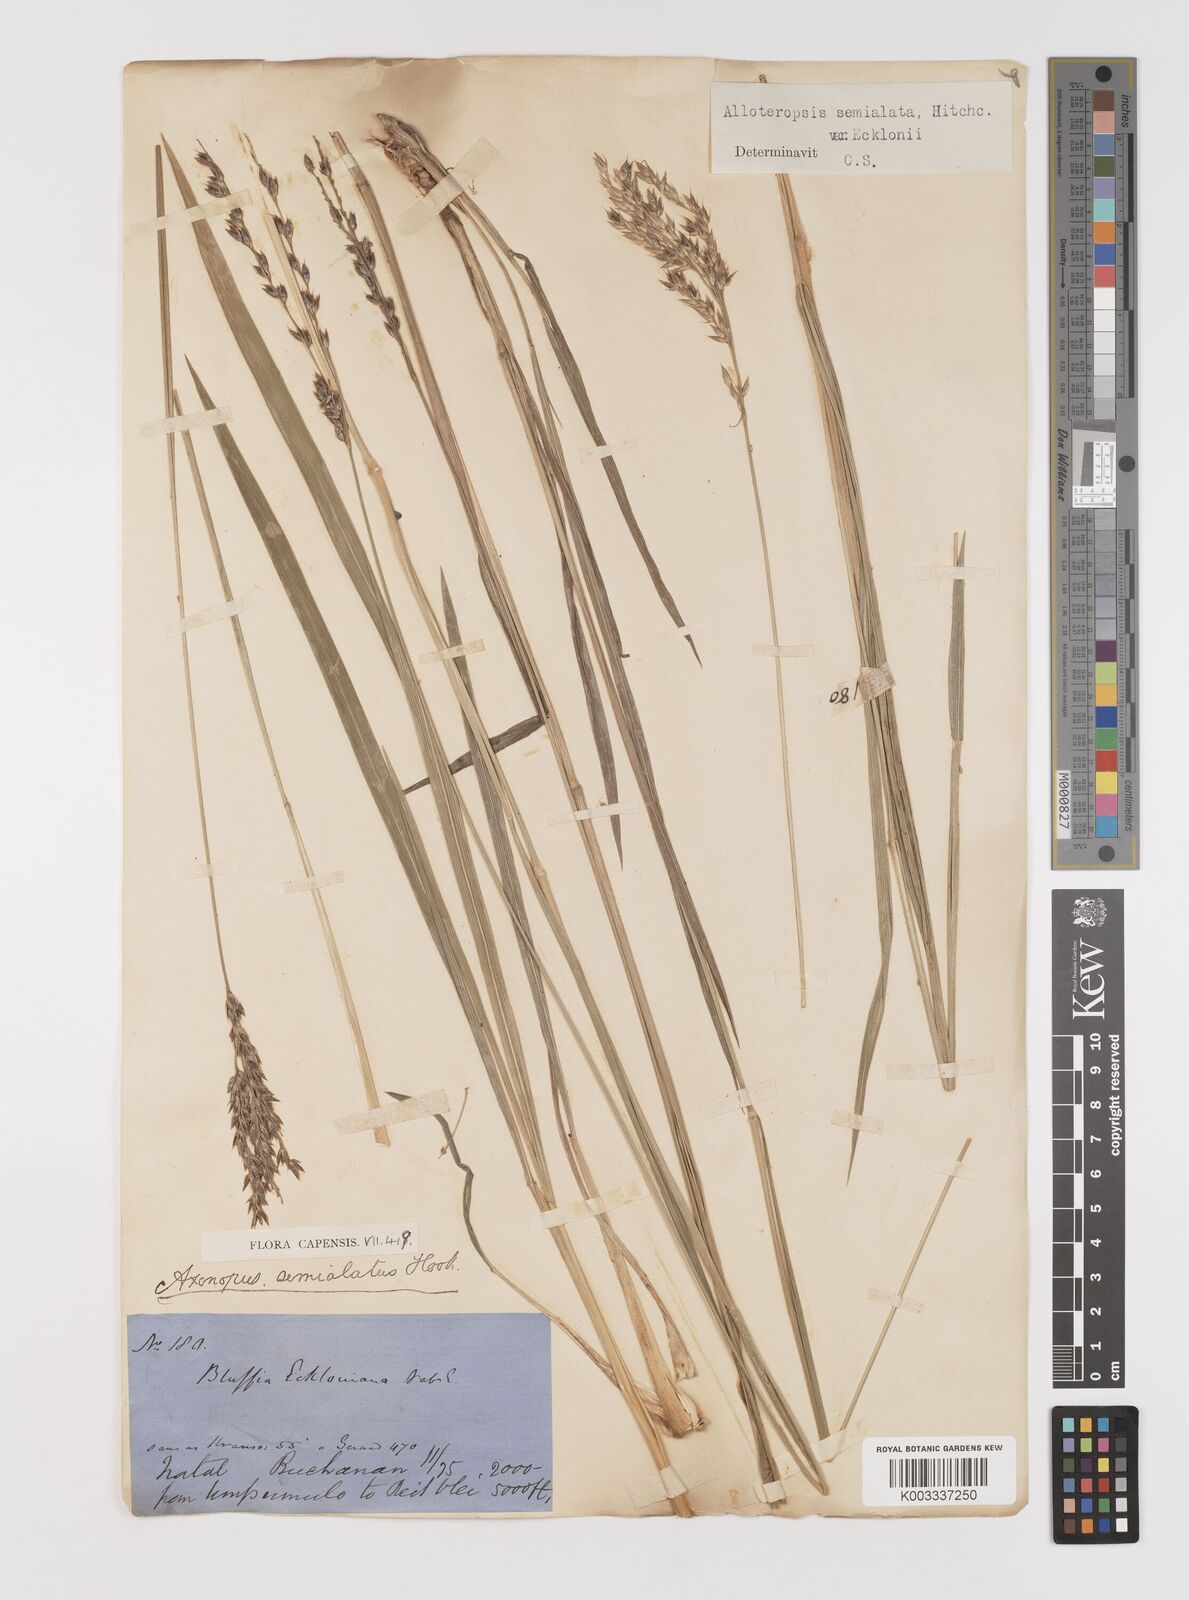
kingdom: Plantae
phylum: Tracheophyta
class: Liliopsida
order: Poales
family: Poaceae
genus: Alloteropsis
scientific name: Alloteropsis semialata
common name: Cockatoo grass
